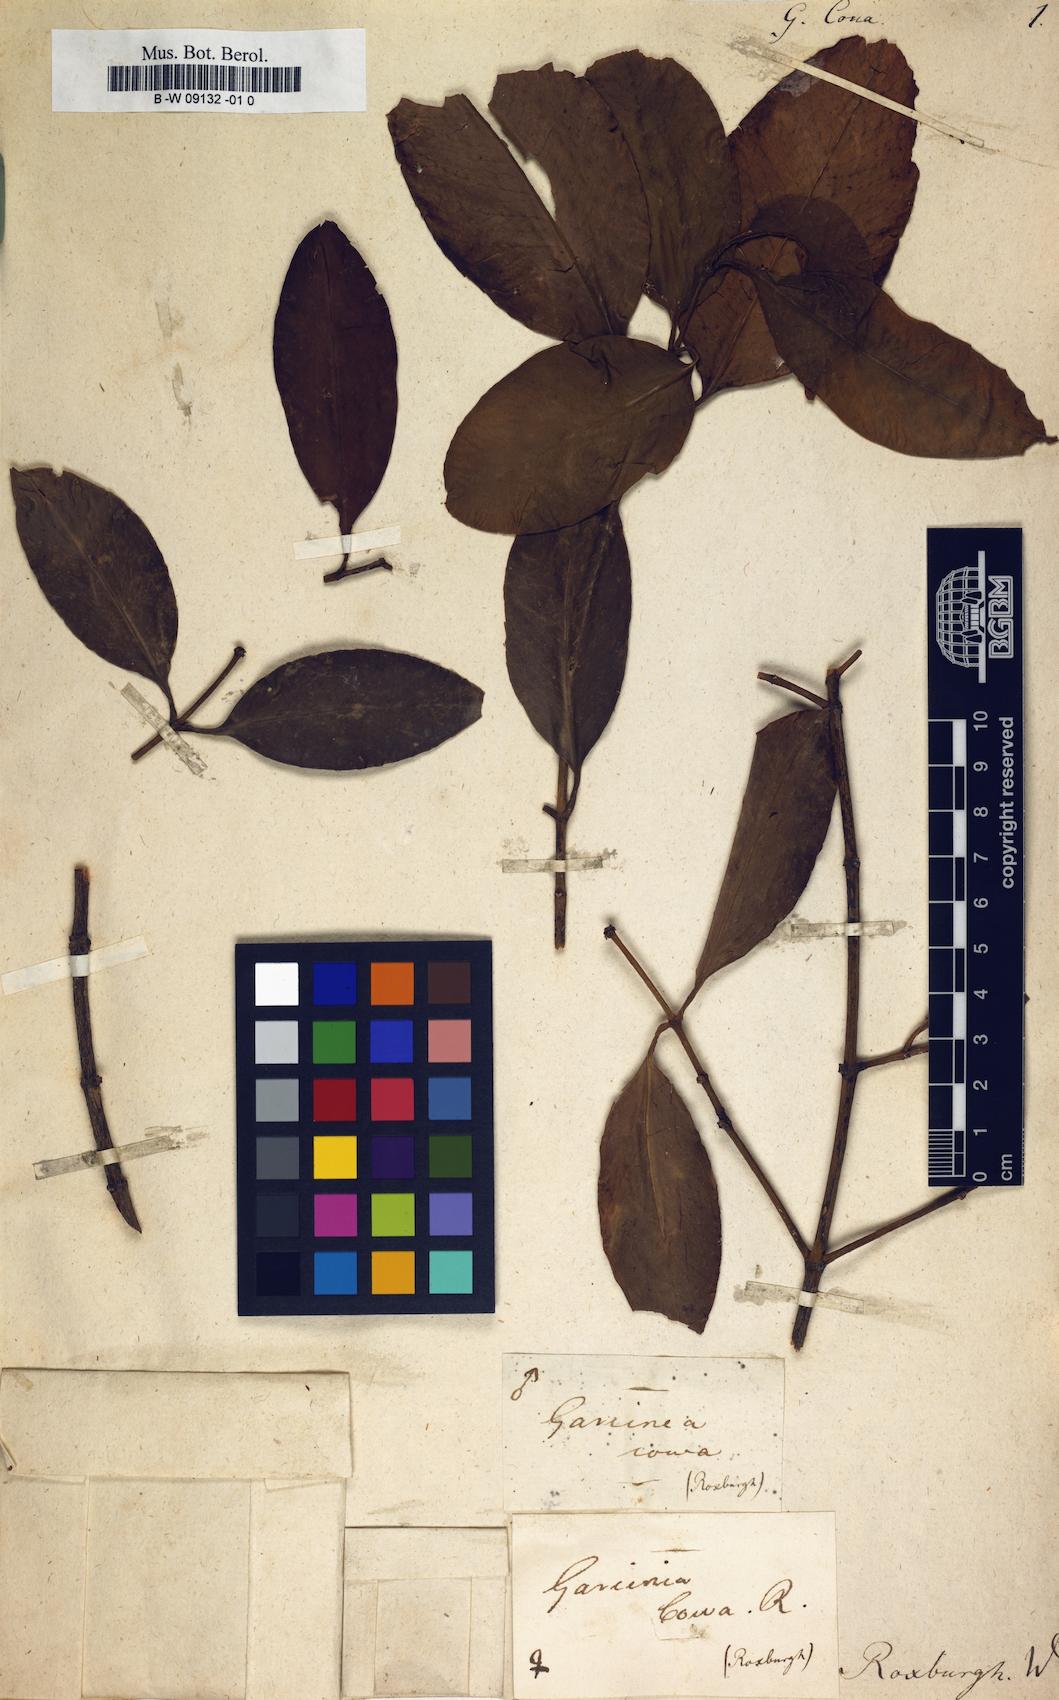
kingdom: Plantae
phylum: Tracheophyta
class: Magnoliopsida
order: Malpighiales
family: Clusiaceae
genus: Garcinia
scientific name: Garcinia cowa
